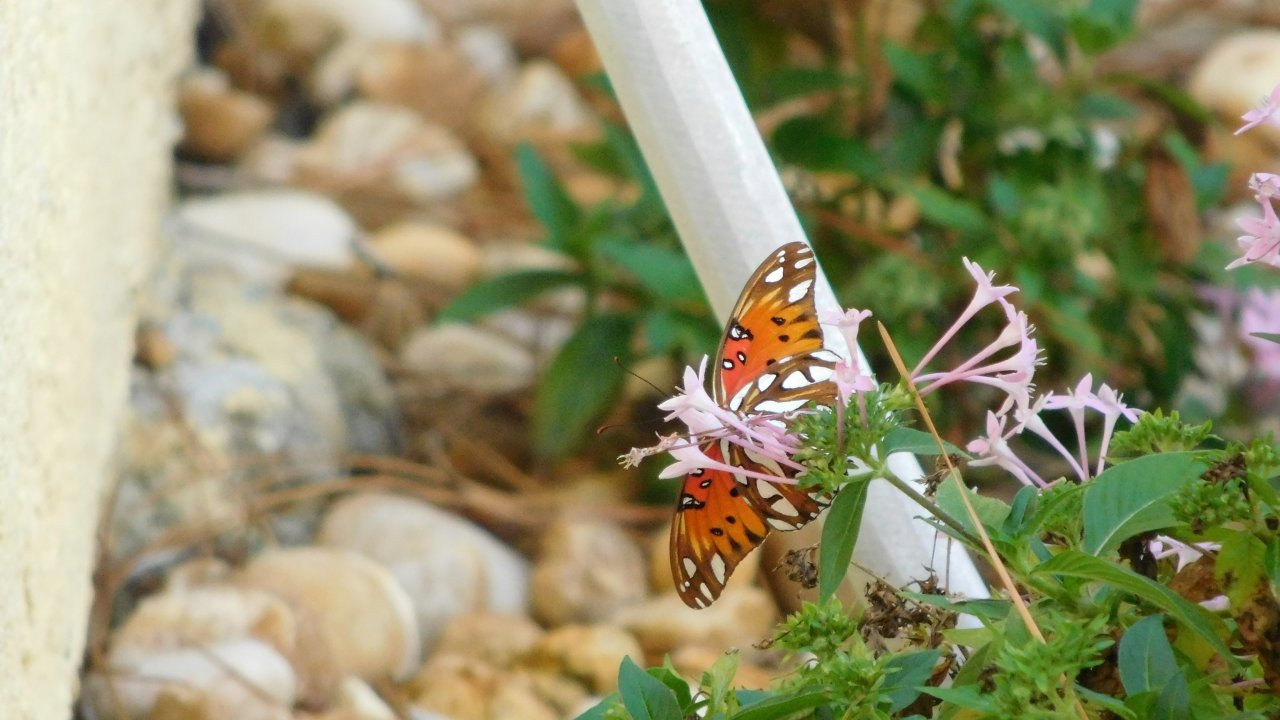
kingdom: Animalia
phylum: Arthropoda
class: Insecta
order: Lepidoptera
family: Nymphalidae
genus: Dione
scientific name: Dione vanillae
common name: Gulf Fritillary
